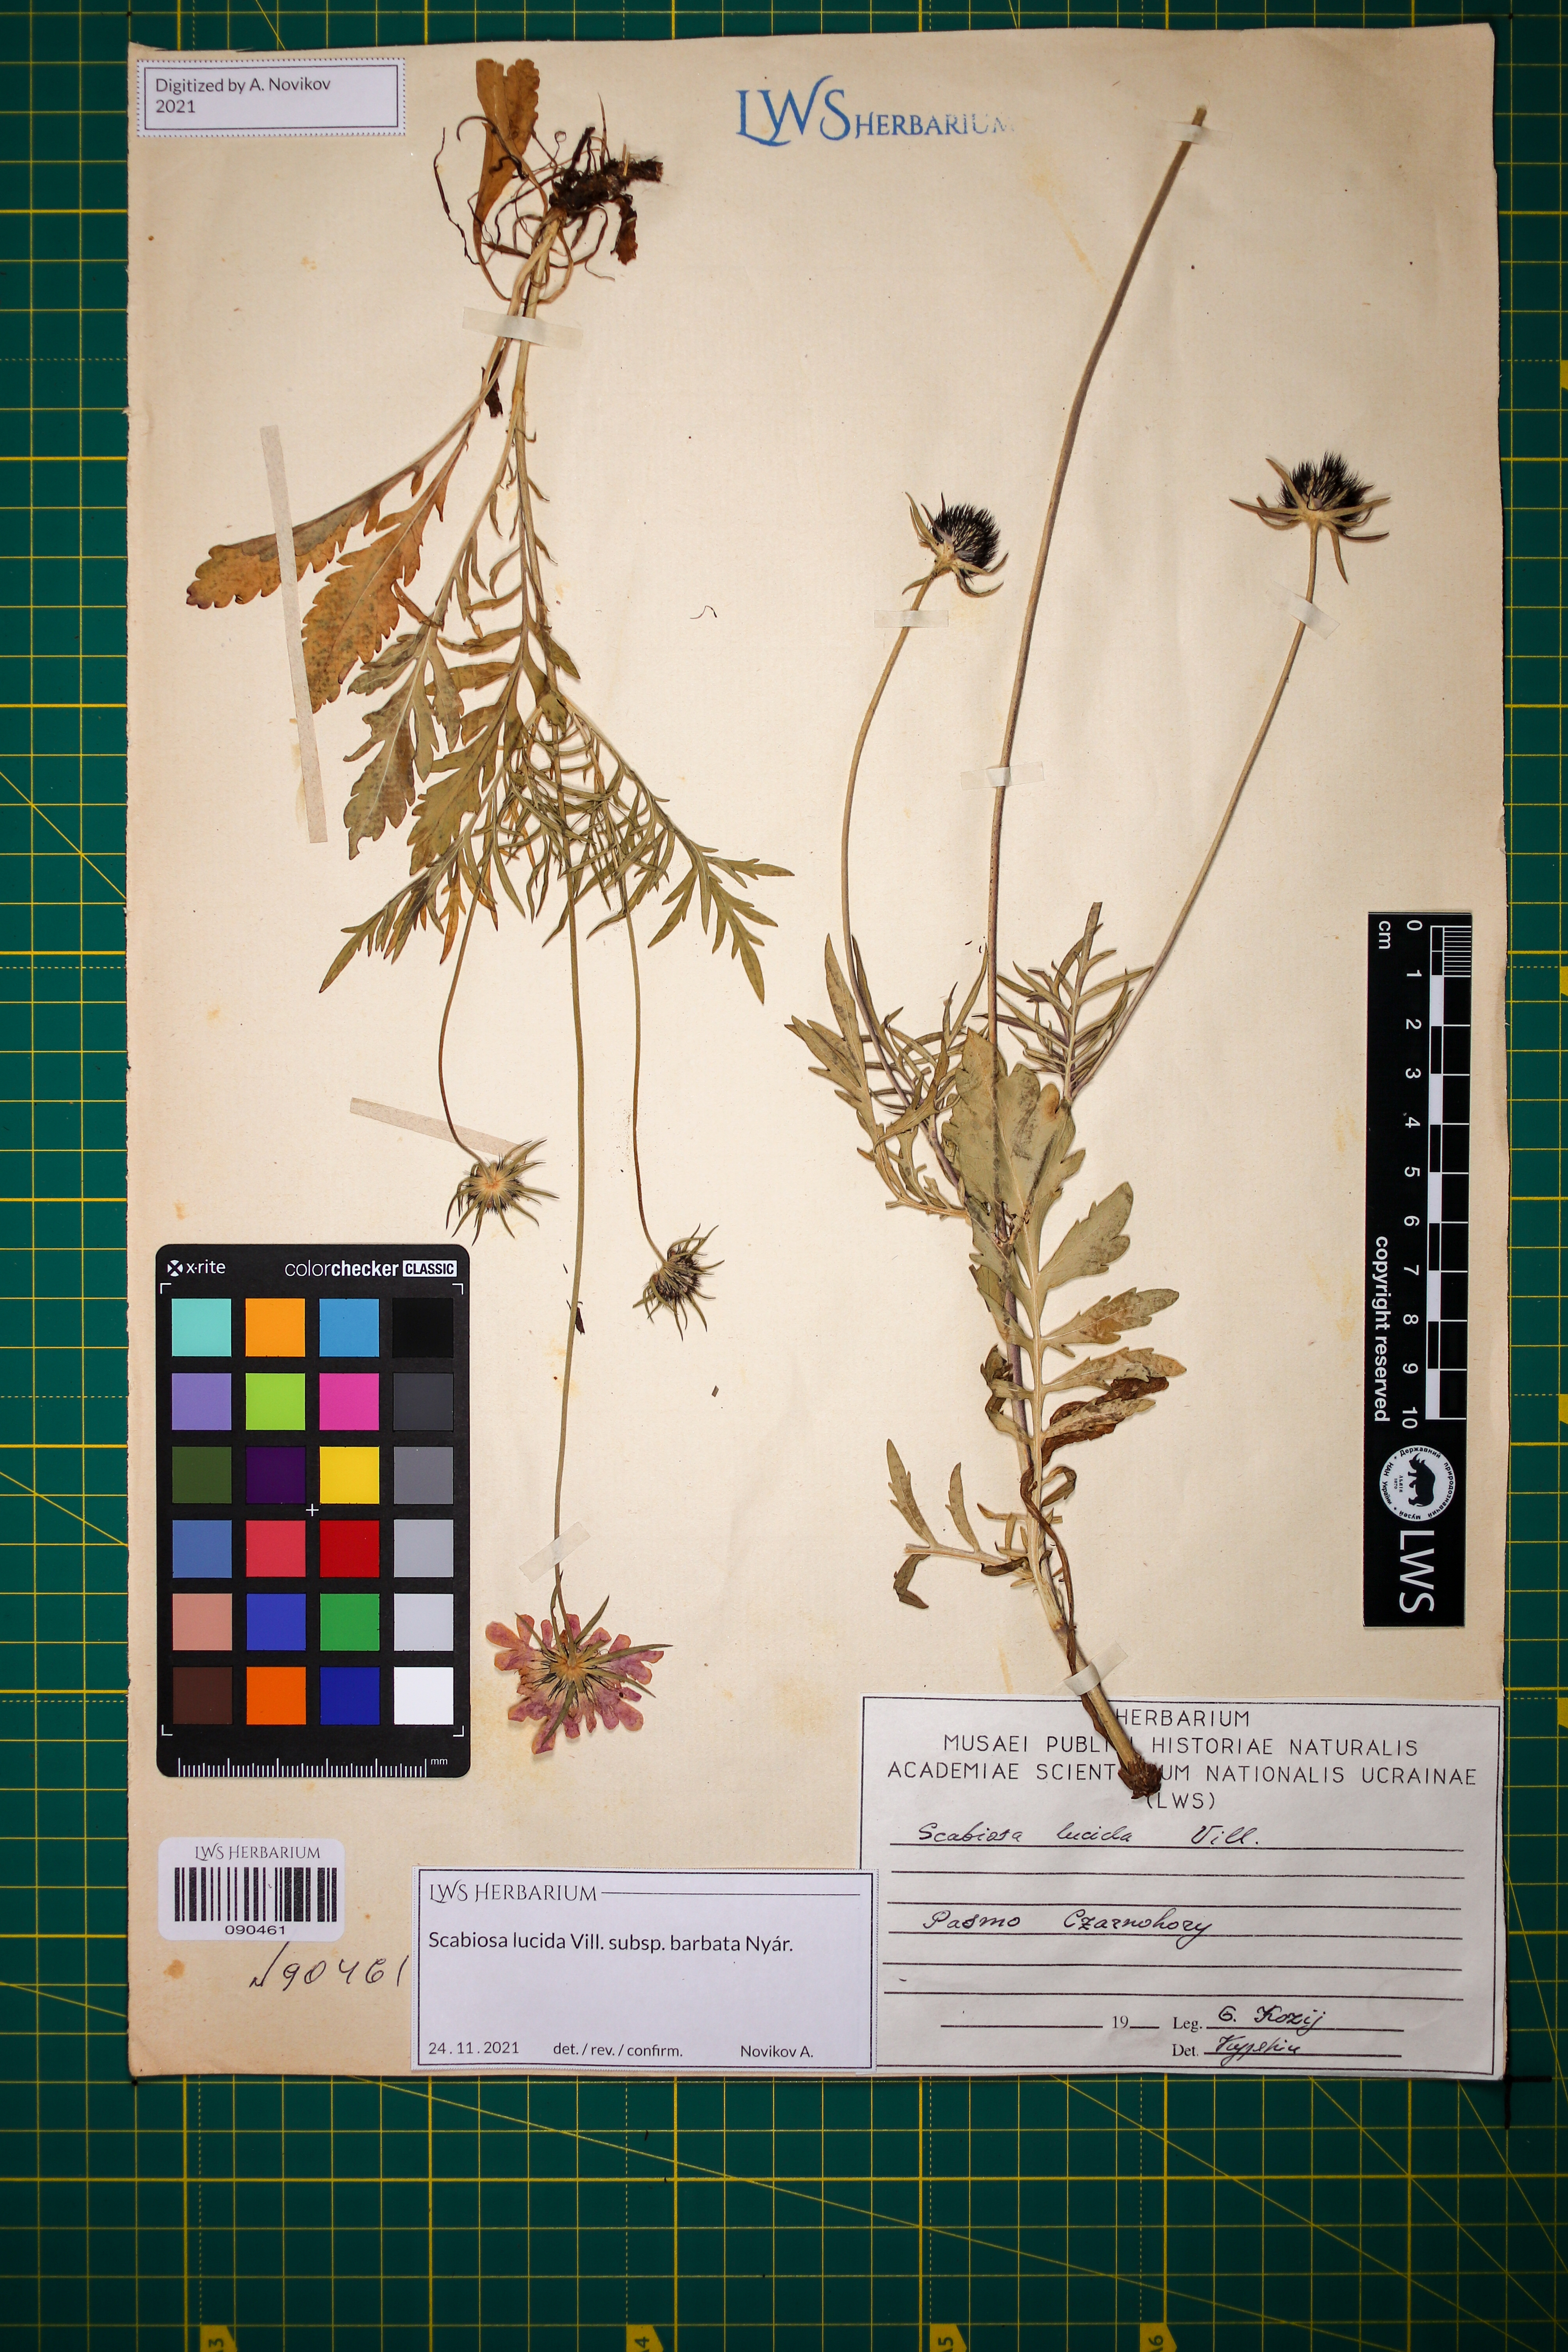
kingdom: Plantae
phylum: Tracheophyta
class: Magnoliopsida
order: Dipsacales
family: Caprifoliaceae
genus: Scabiosa
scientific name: Scabiosa lucida
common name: Shining scabious
